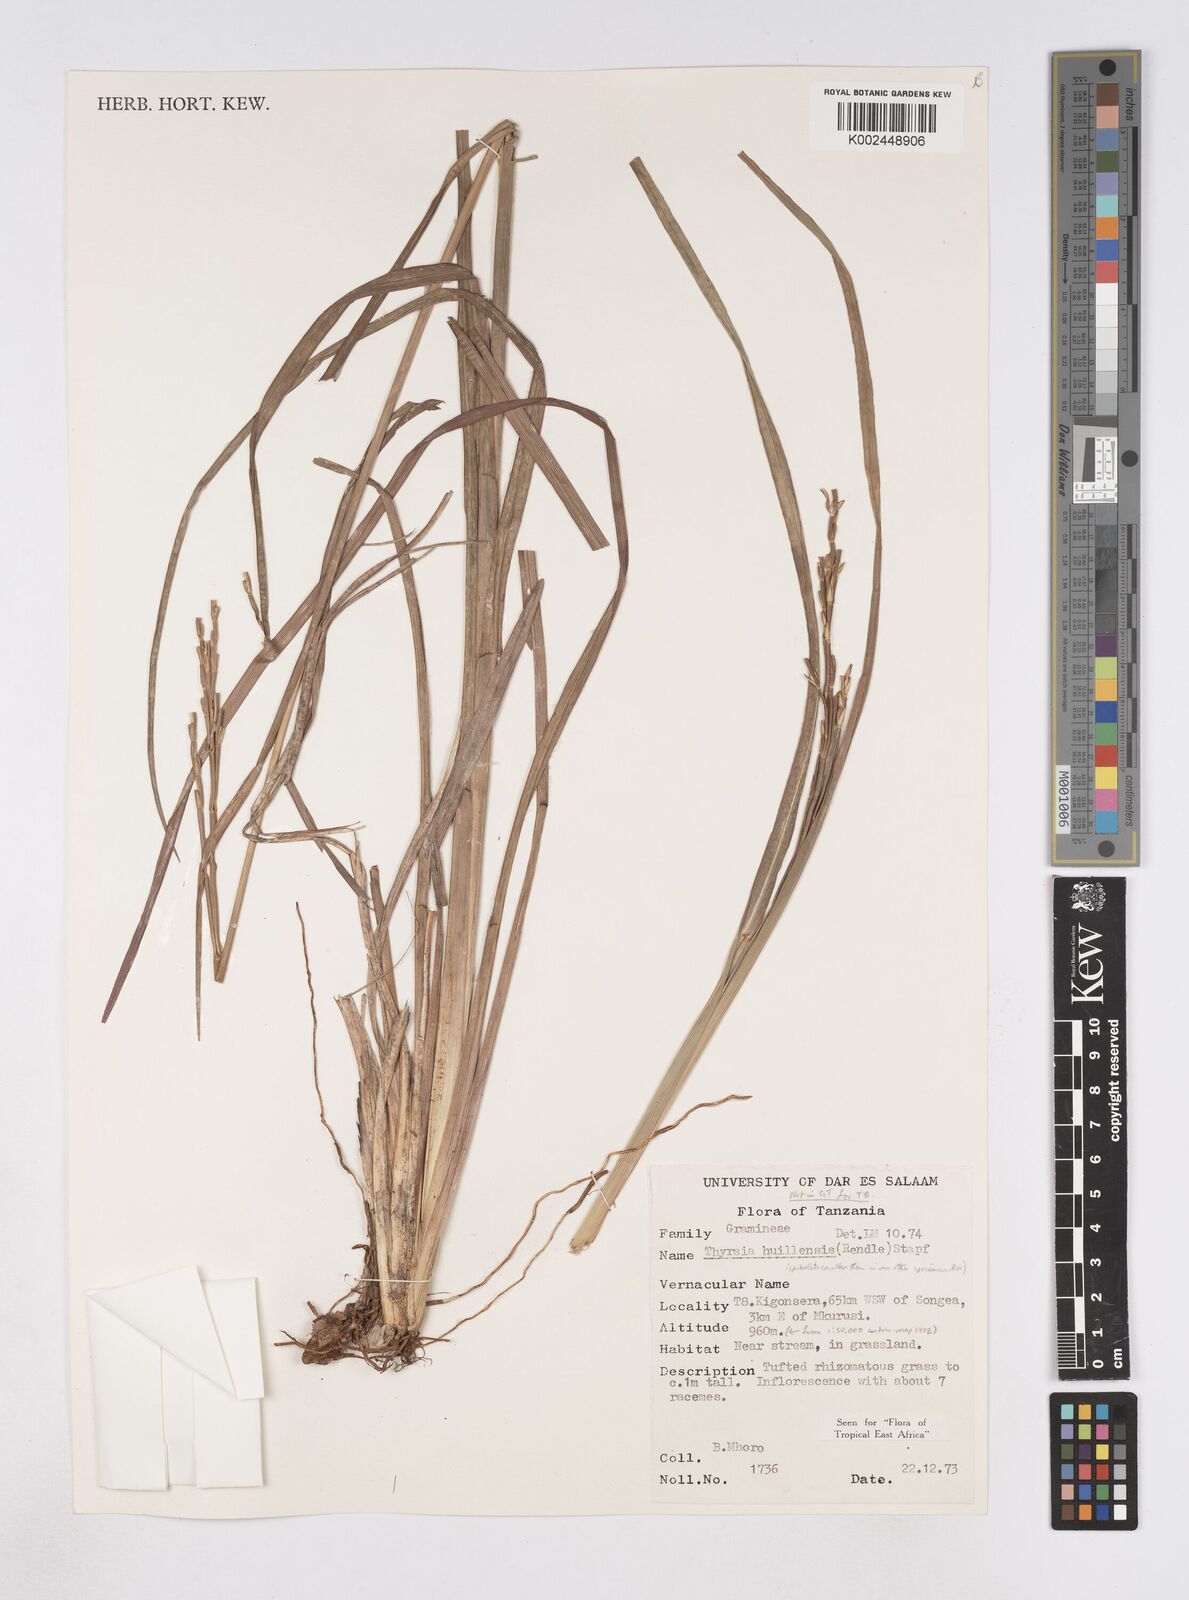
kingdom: Plantae
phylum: Tracheophyta
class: Liliopsida
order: Poales
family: Poaceae
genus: Thyrsia
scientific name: Thyrsia huillensis
